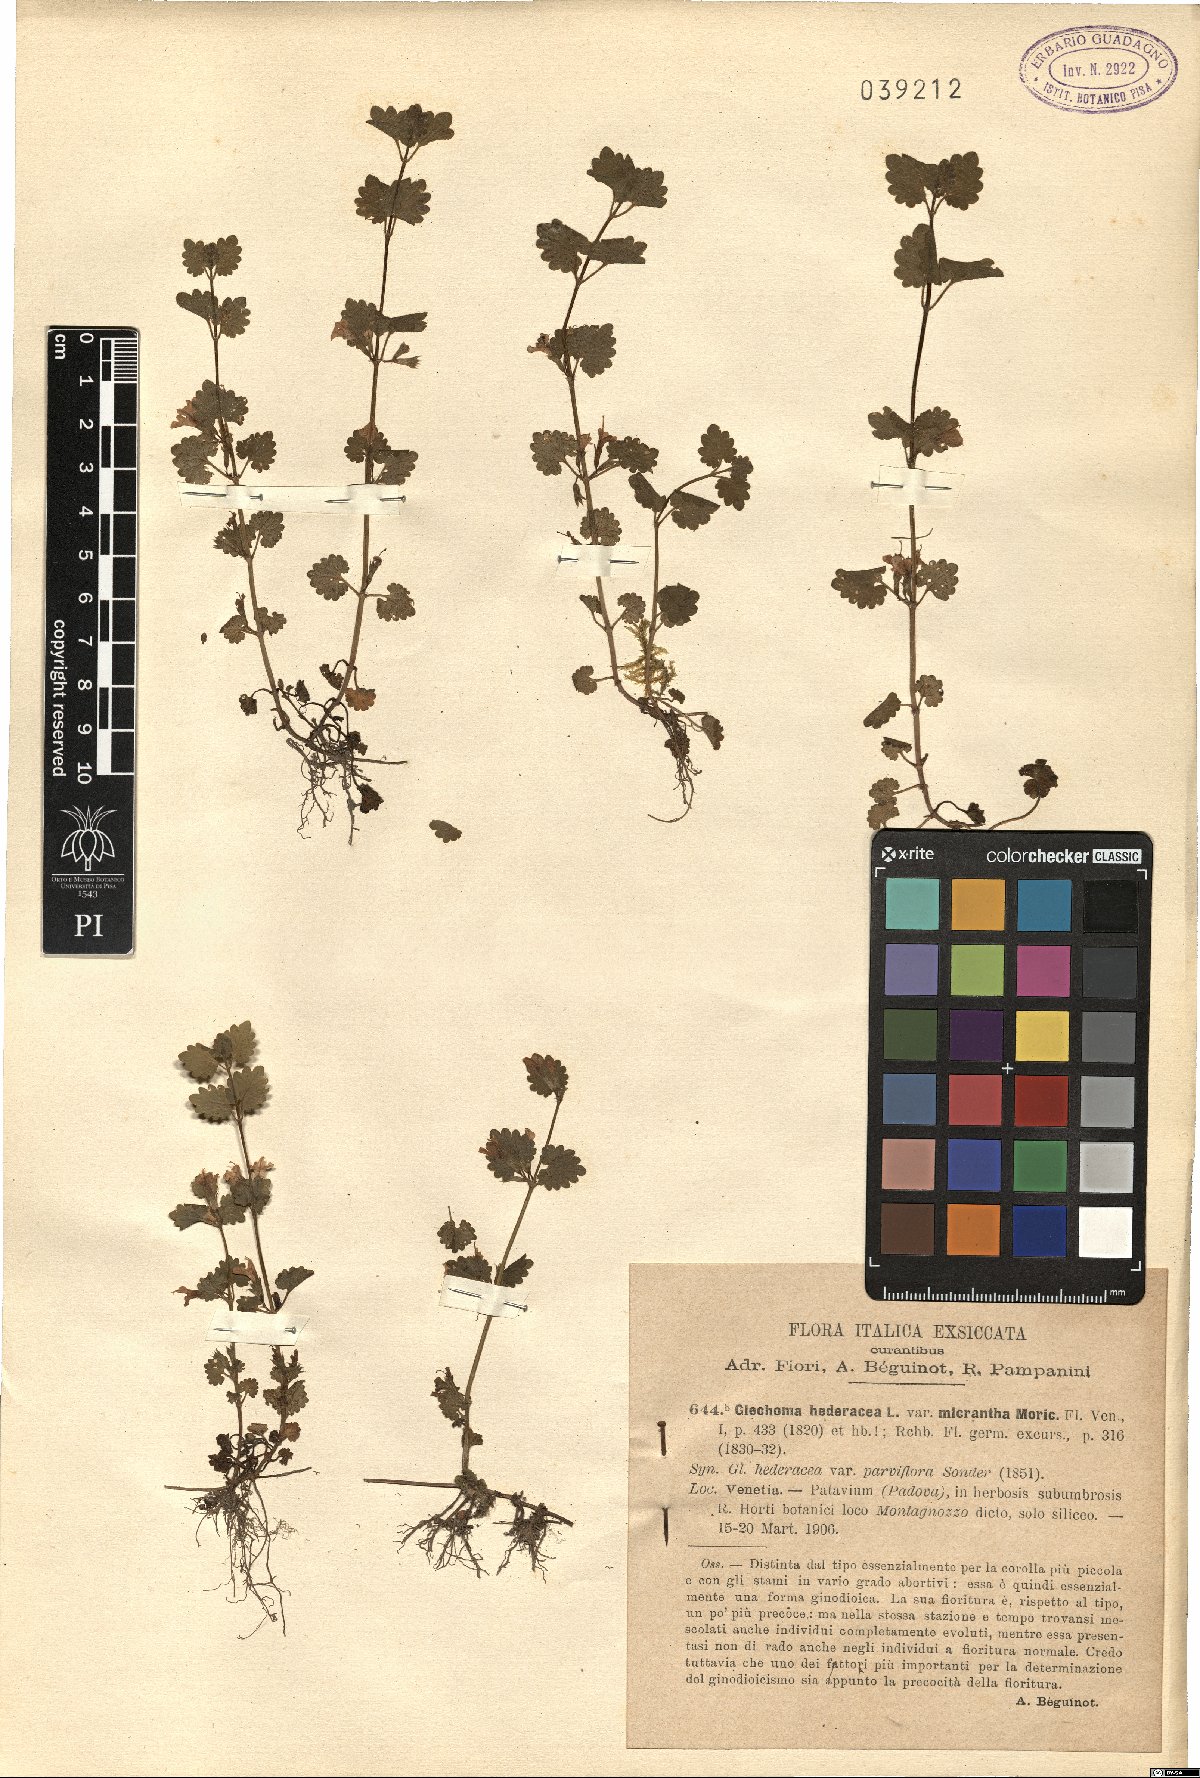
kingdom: Plantae
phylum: Tracheophyta
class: Magnoliopsida
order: Lamiales
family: Lamiaceae
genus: Glechoma
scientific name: Glechoma hederacea
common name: Ground ivy
